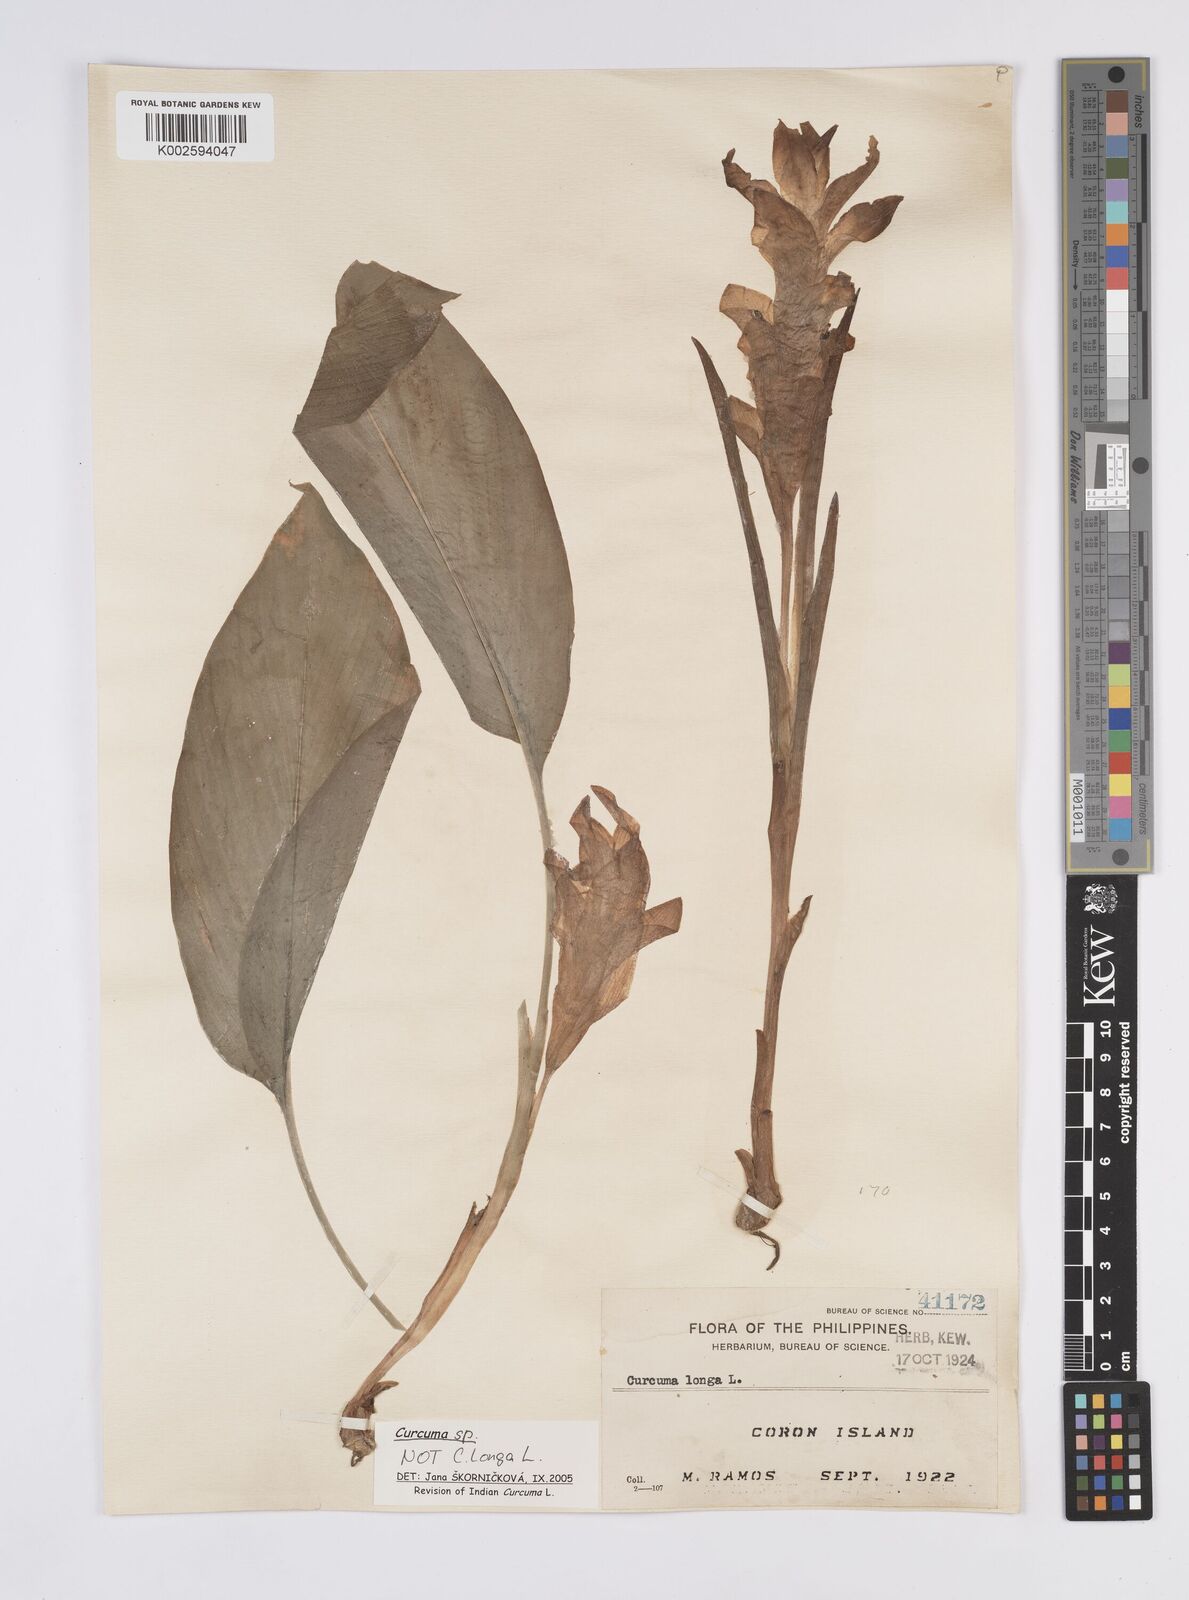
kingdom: Plantae
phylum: Tracheophyta
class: Liliopsida
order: Zingiberales
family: Zingiberaceae
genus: Curcuma
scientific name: Curcuma
